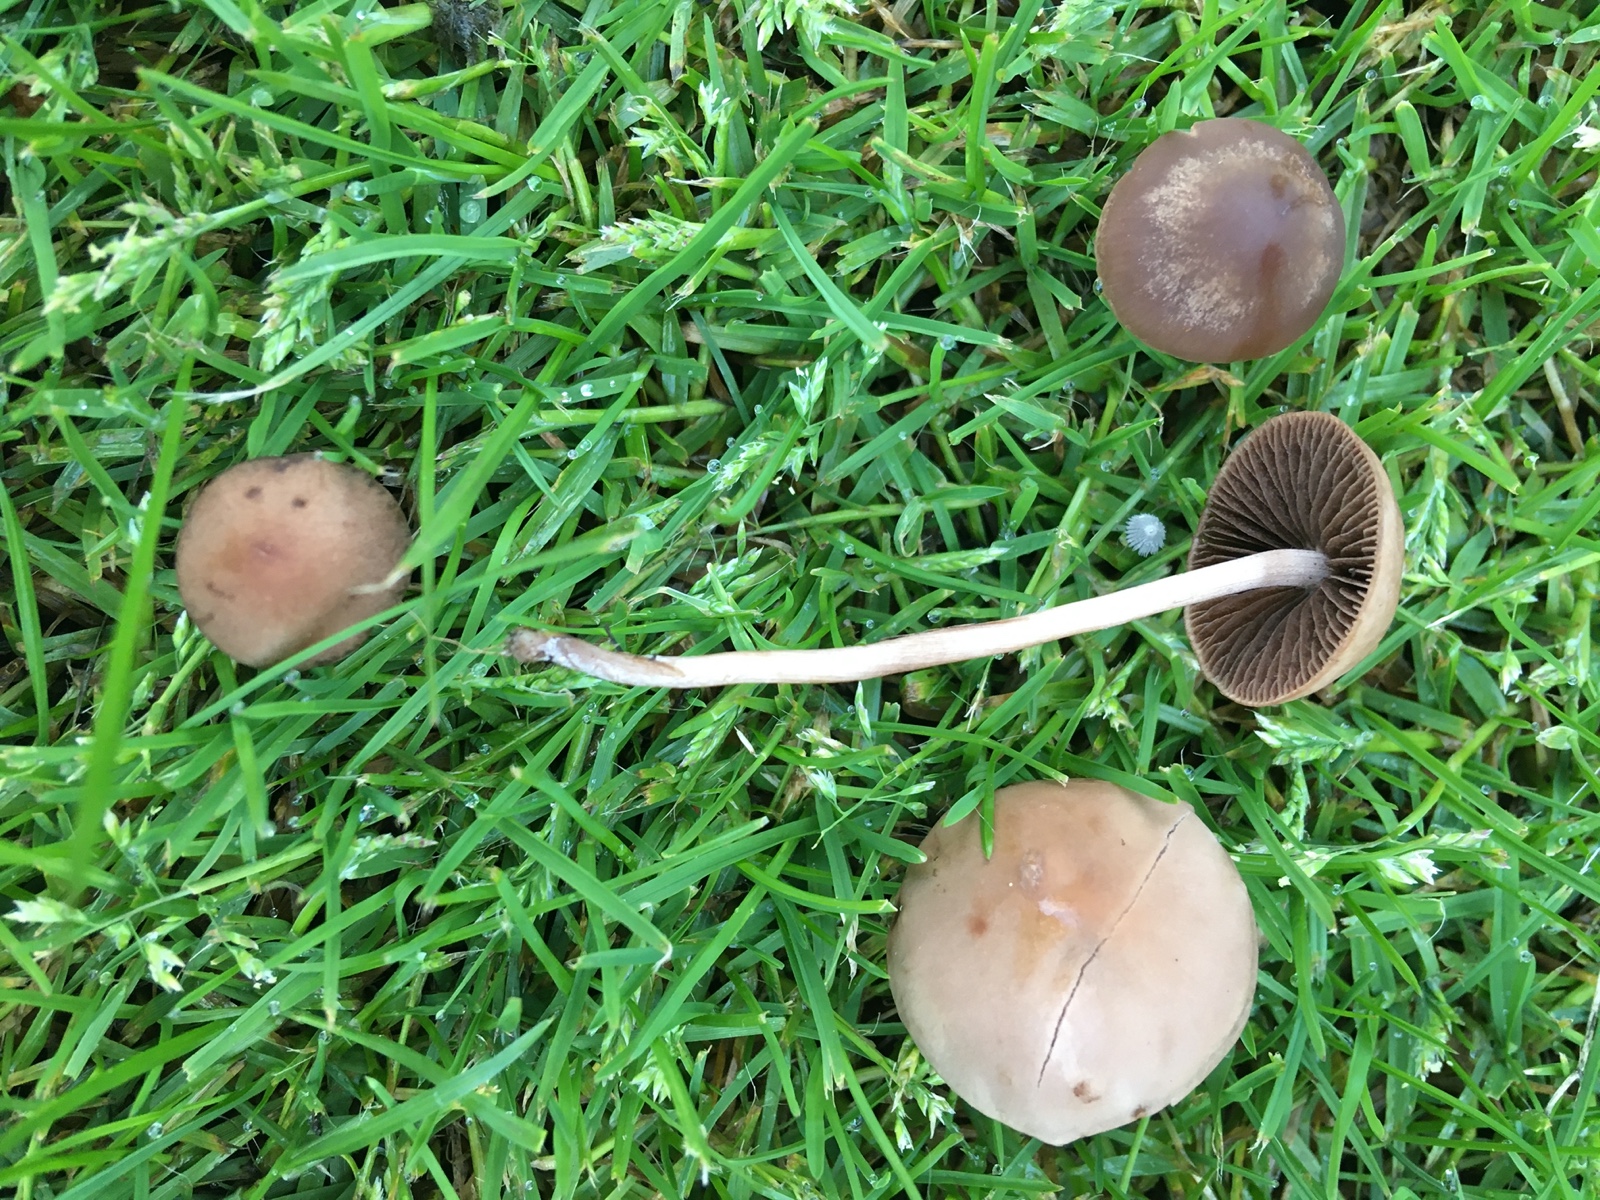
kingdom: Fungi
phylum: Basidiomycota
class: Agaricomycetes
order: Agaricales
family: Bolbitiaceae
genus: Panaeolina
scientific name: Panaeolina foenisecii
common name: høslætsvamp
